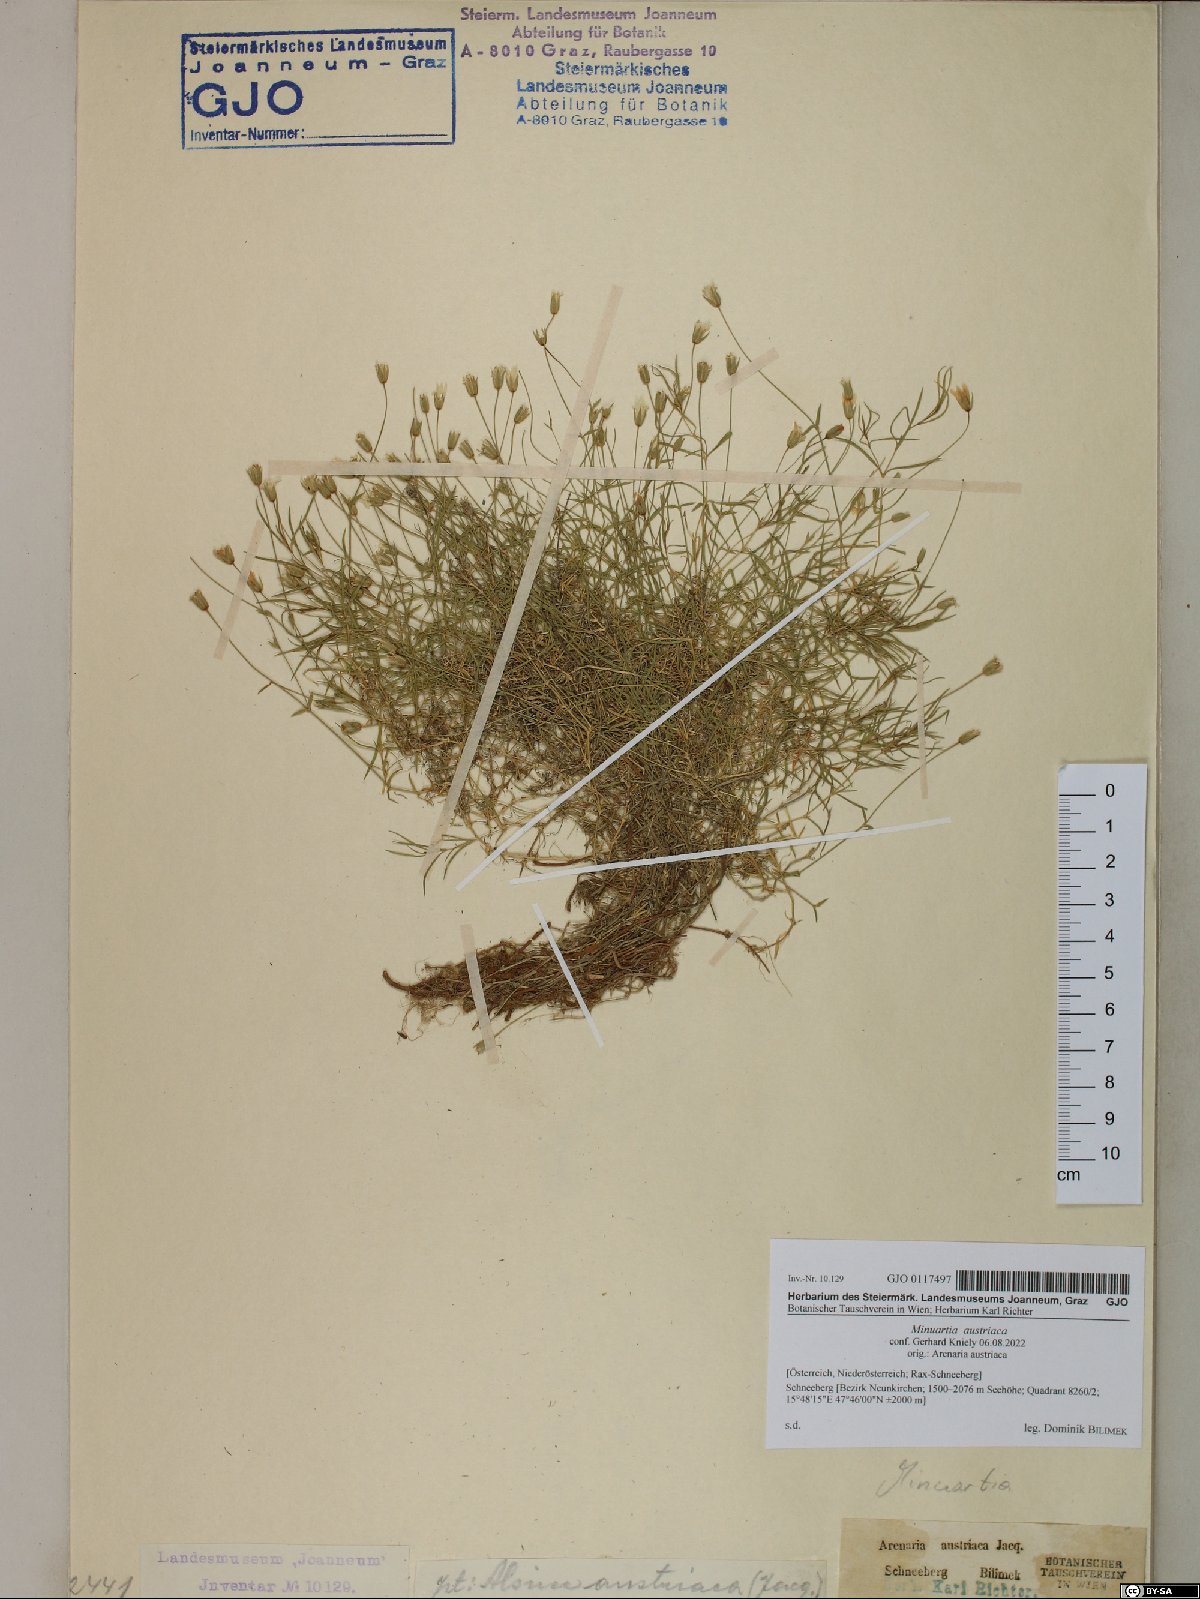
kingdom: Plantae
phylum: Tracheophyta
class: Magnoliopsida
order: Caryophyllales
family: Caryophyllaceae
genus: Sabulina
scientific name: Sabulina austriaca
